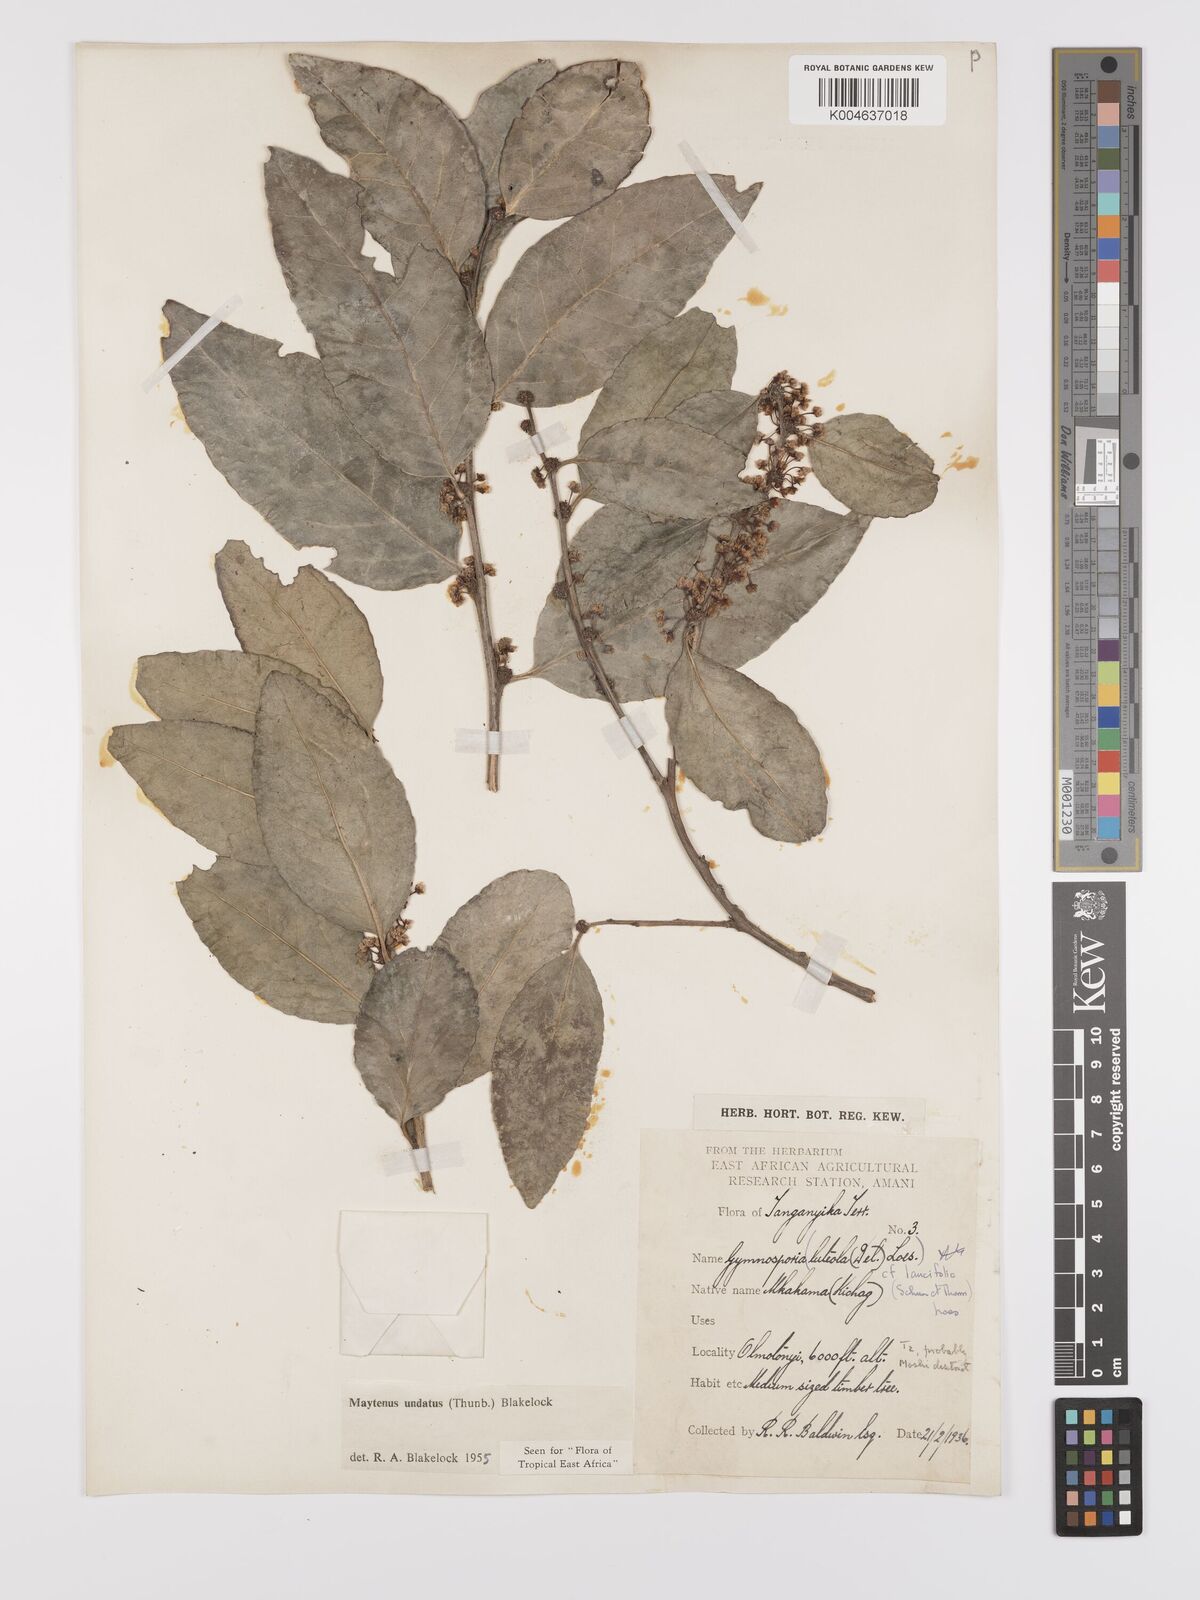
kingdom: Plantae
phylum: Tracheophyta
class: Magnoliopsida
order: Celastrales
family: Celastraceae
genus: Gymnosporia
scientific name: Gymnosporia undata
